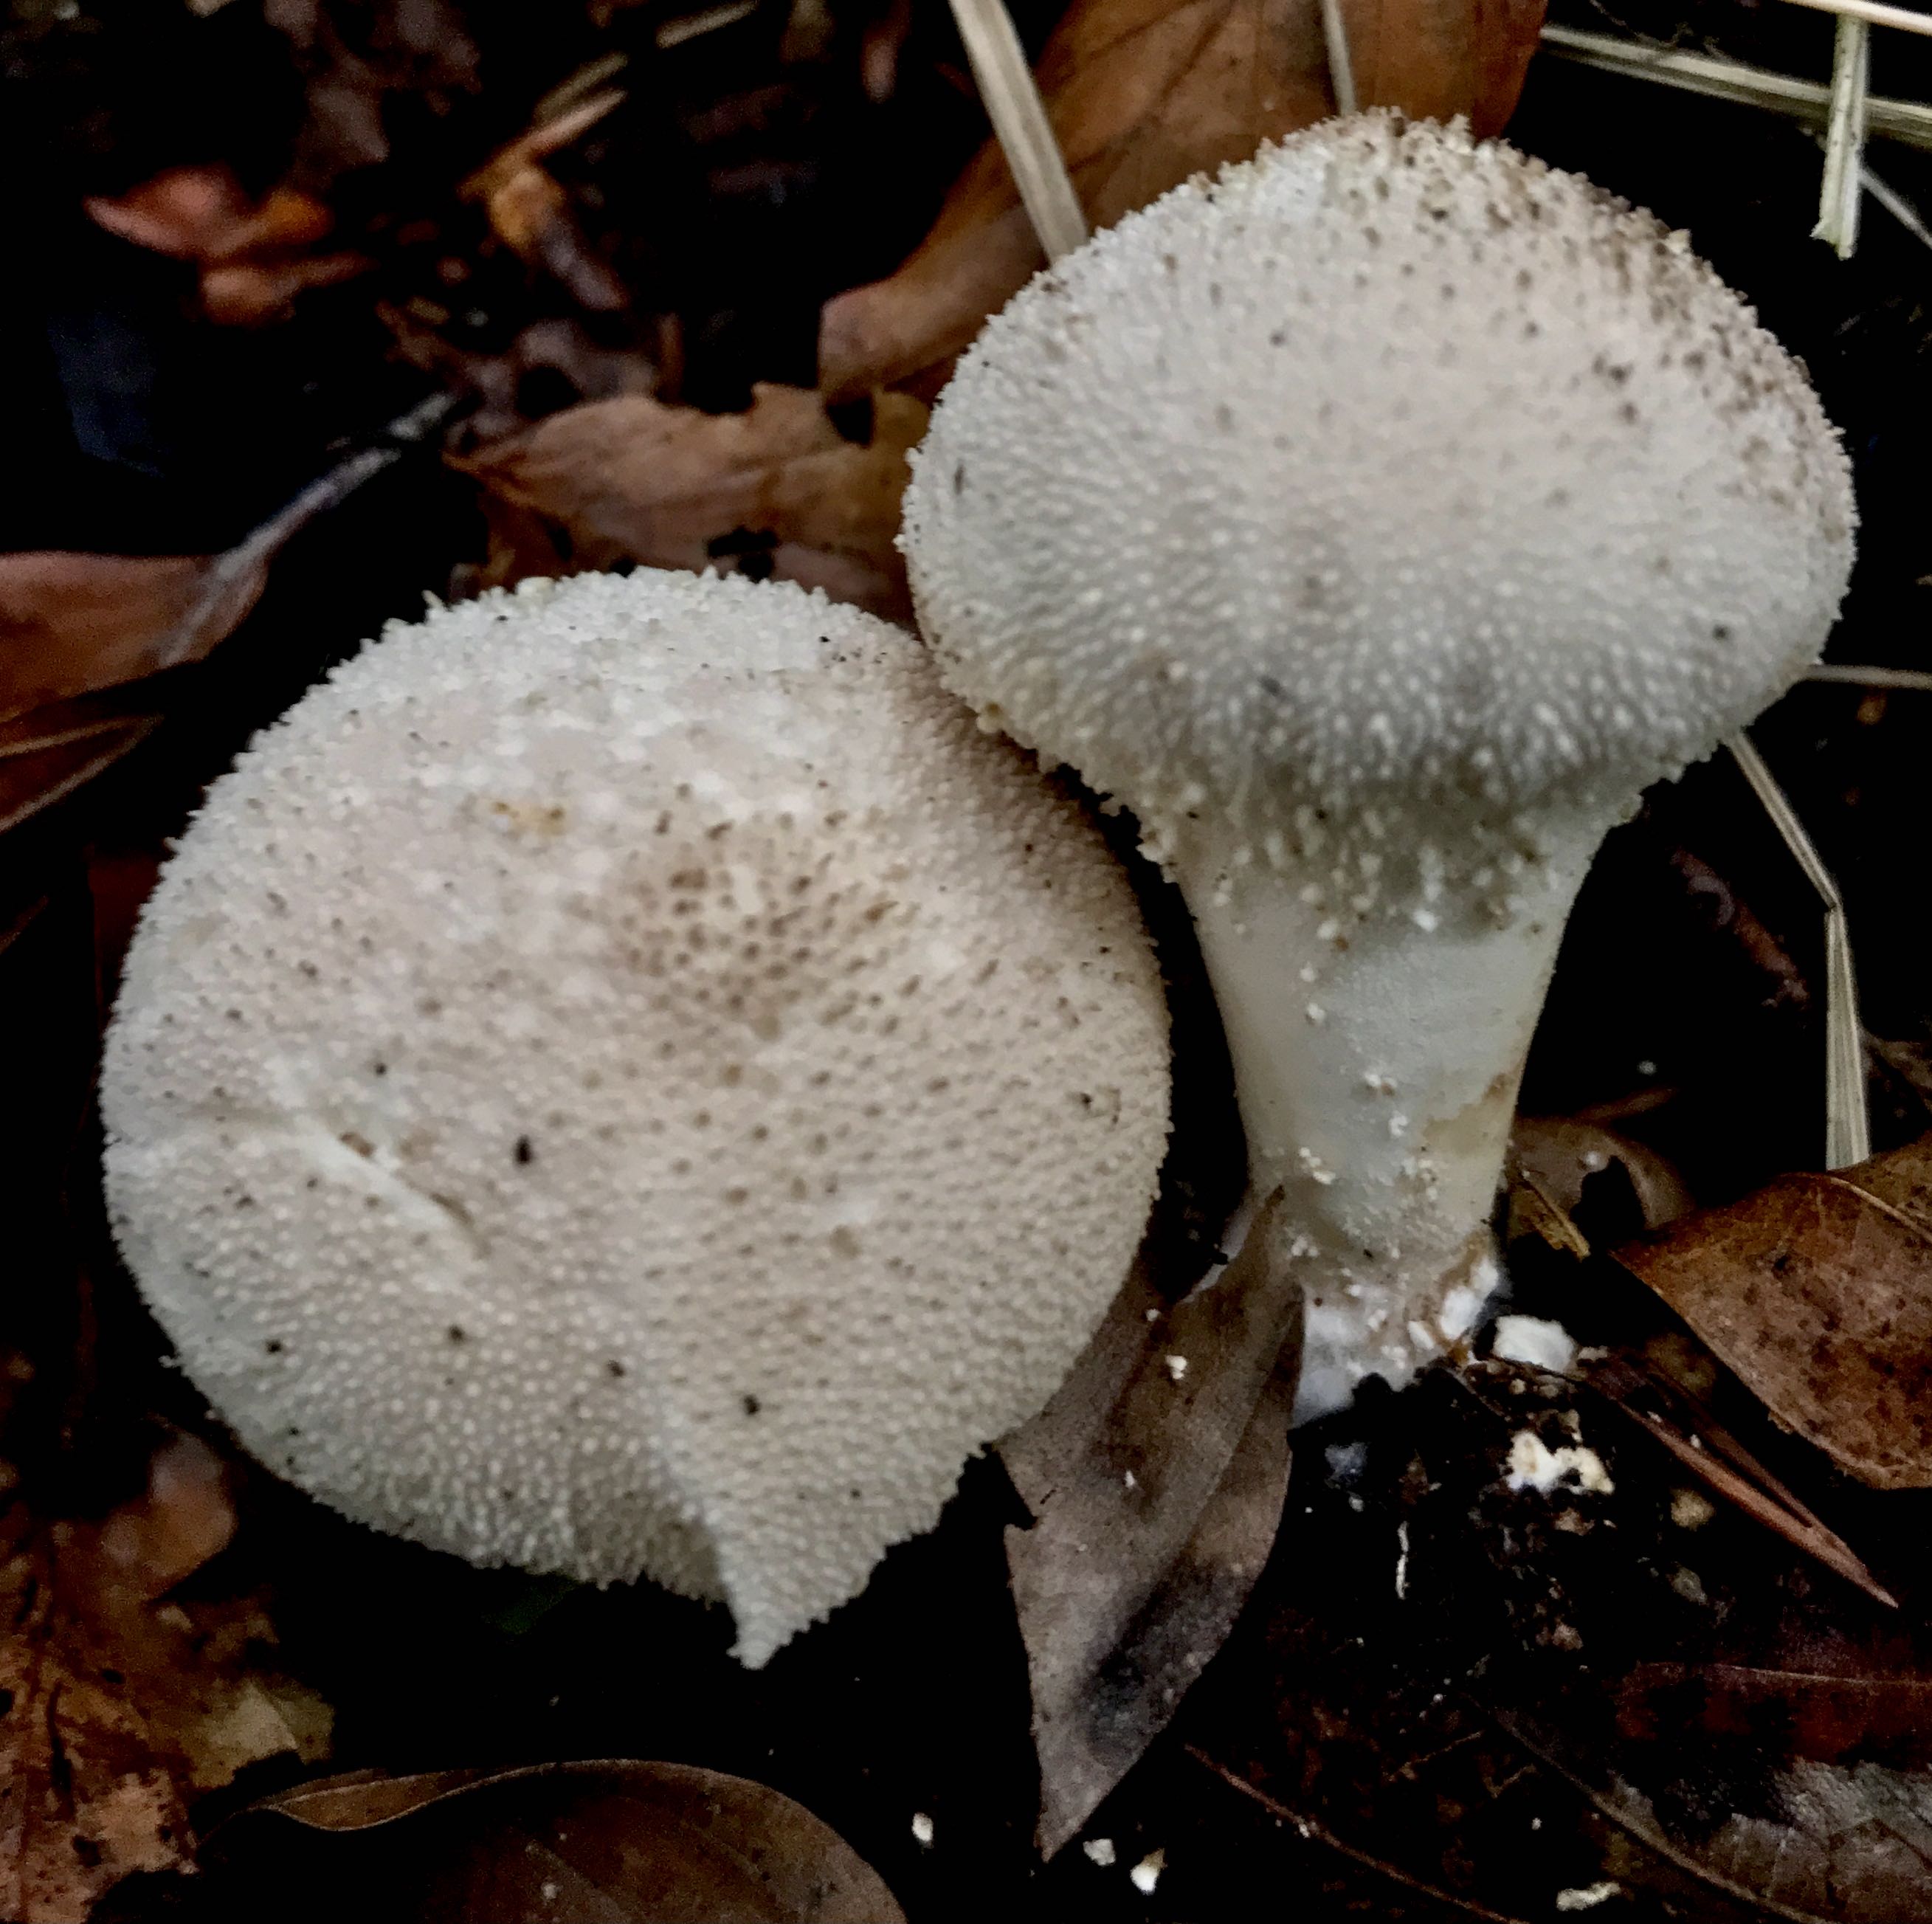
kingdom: Fungi
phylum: Basidiomycota
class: Agaricomycetes
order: Agaricales
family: Lycoperdaceae
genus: Lycoperdon
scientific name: Lycoperdon perlatum
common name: krystal-støvbold
